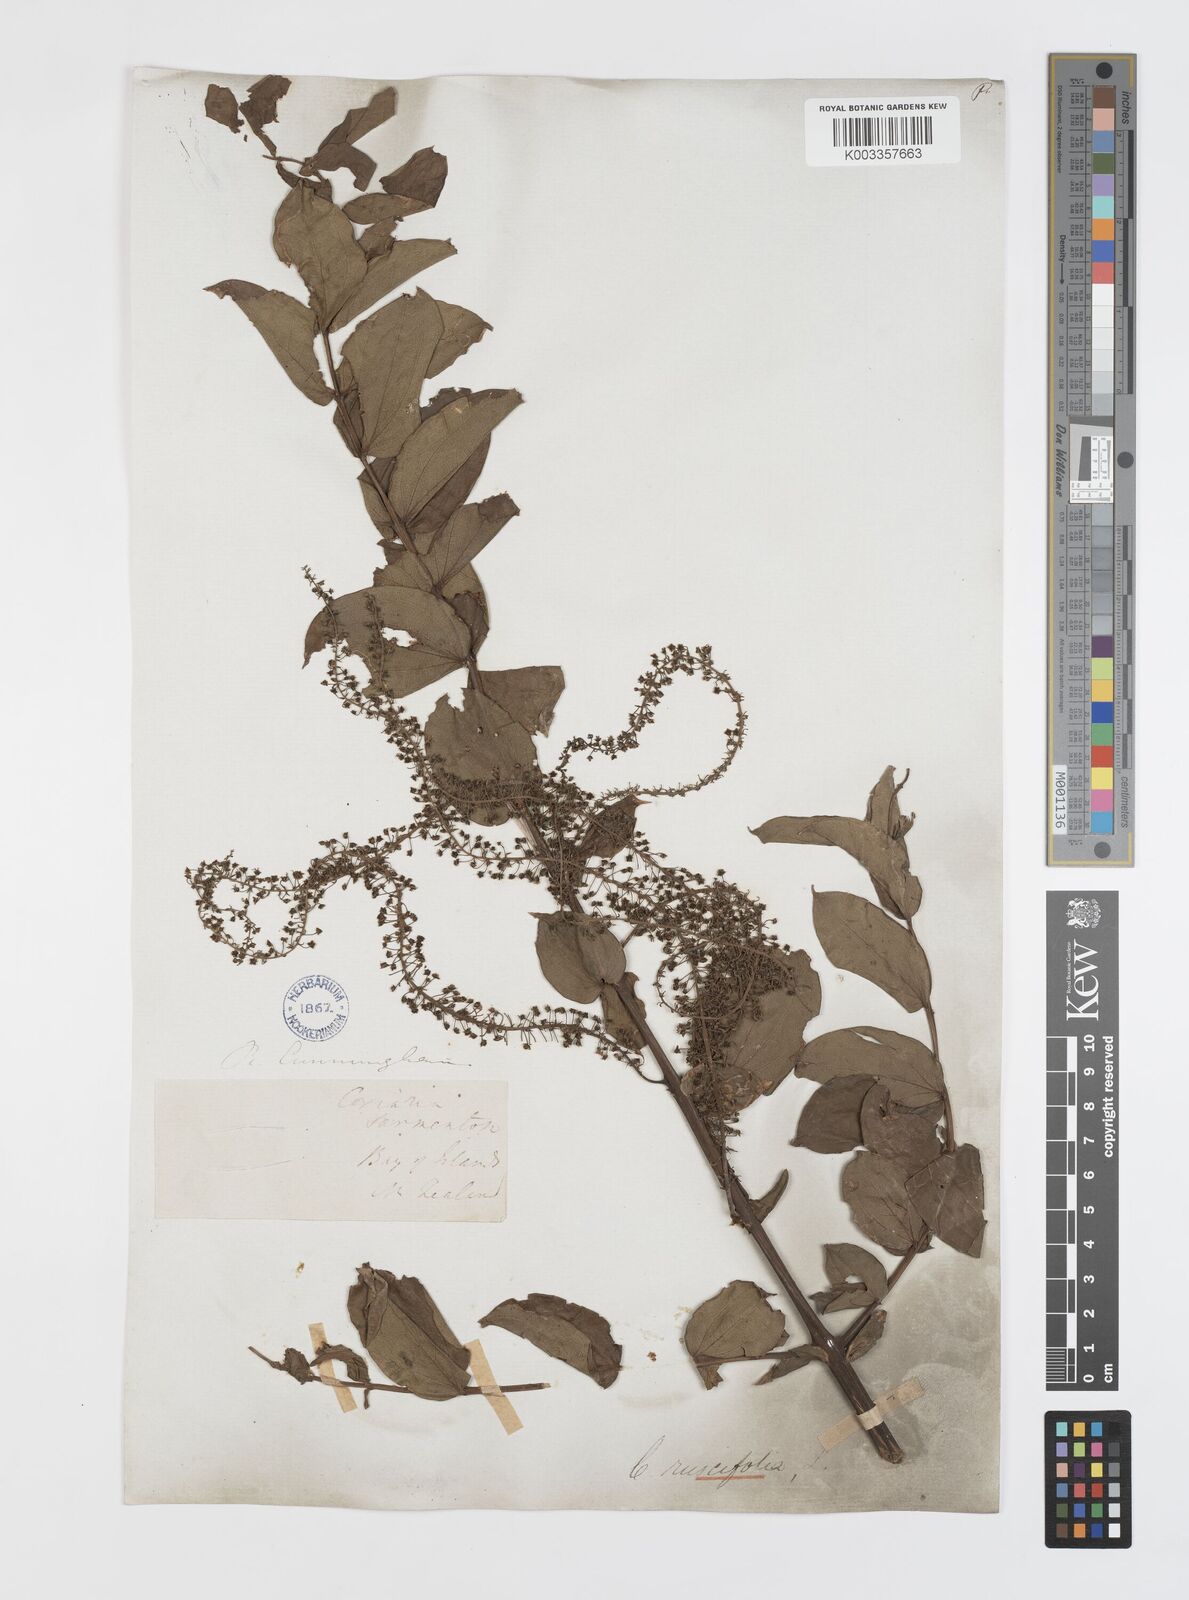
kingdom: Plantae
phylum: Tracheophyta
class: Magnoliopsida
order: Cucurbitales
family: Coriariaceae
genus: Coriaria
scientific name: Coriaria ruscifolia
